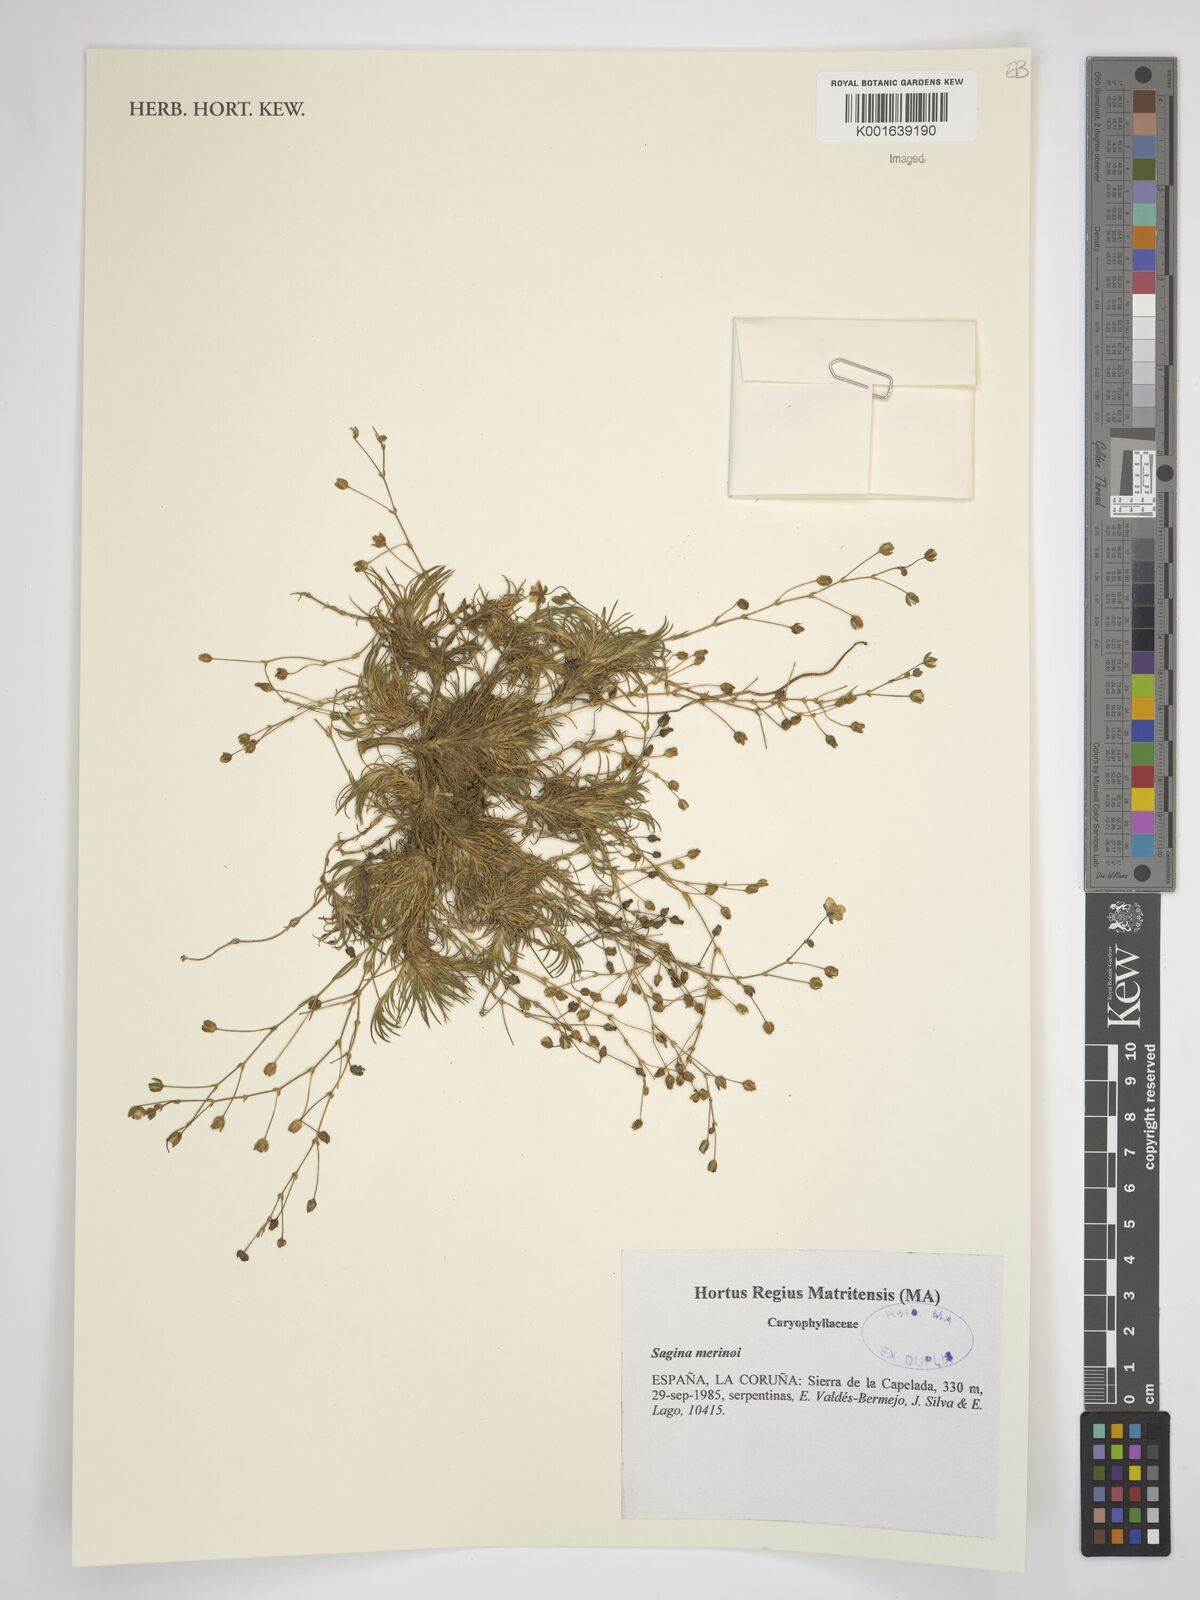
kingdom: Plantae
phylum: Tracheophyta
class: Magnoliopsida
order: Caryophyllales
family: Caryophyllaceae
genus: Sagina
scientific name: Sagina alexandrae
